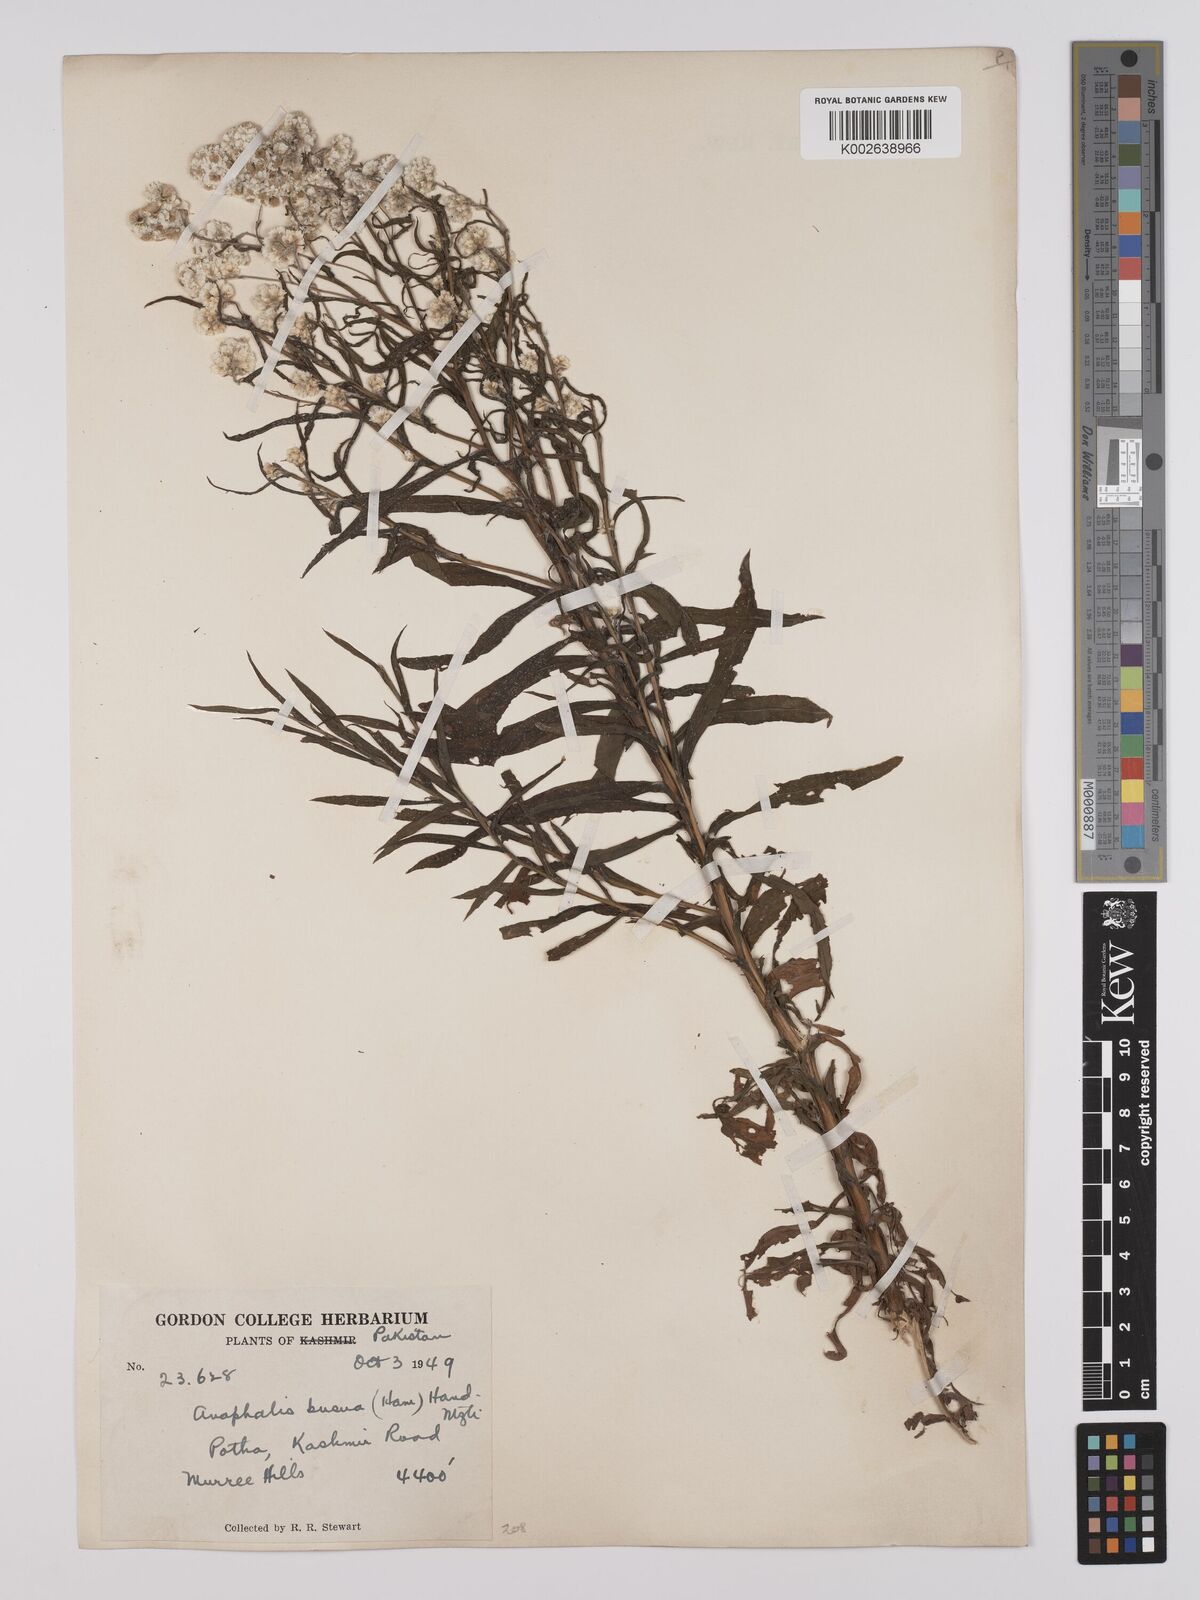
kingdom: Plantae
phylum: Tracheophyta
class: Magnoliopsida
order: Asterales
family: Asteraceae
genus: Anaphalis
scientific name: Anaphalis busua
